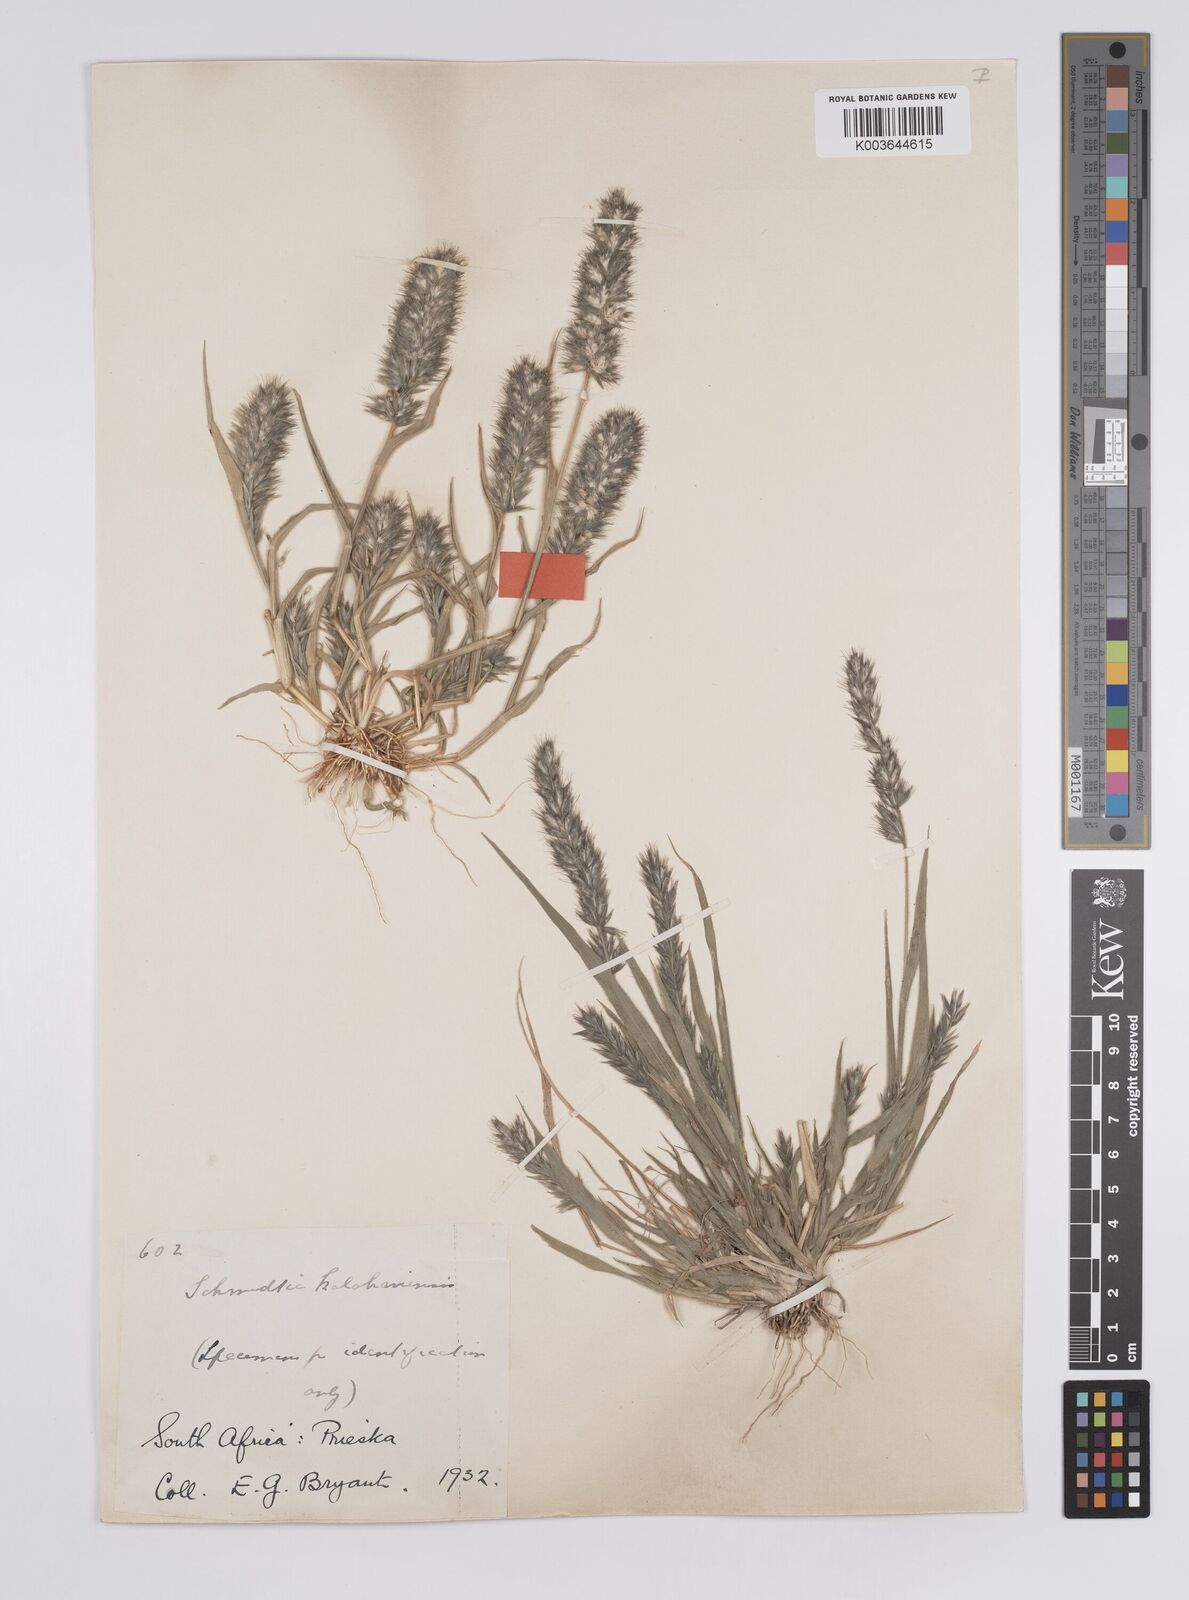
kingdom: Plantae
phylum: Tracheophyta
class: Liliopsida
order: Poales
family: Poaceae
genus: Schmidtia
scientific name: Schmidtia kalahariensis
